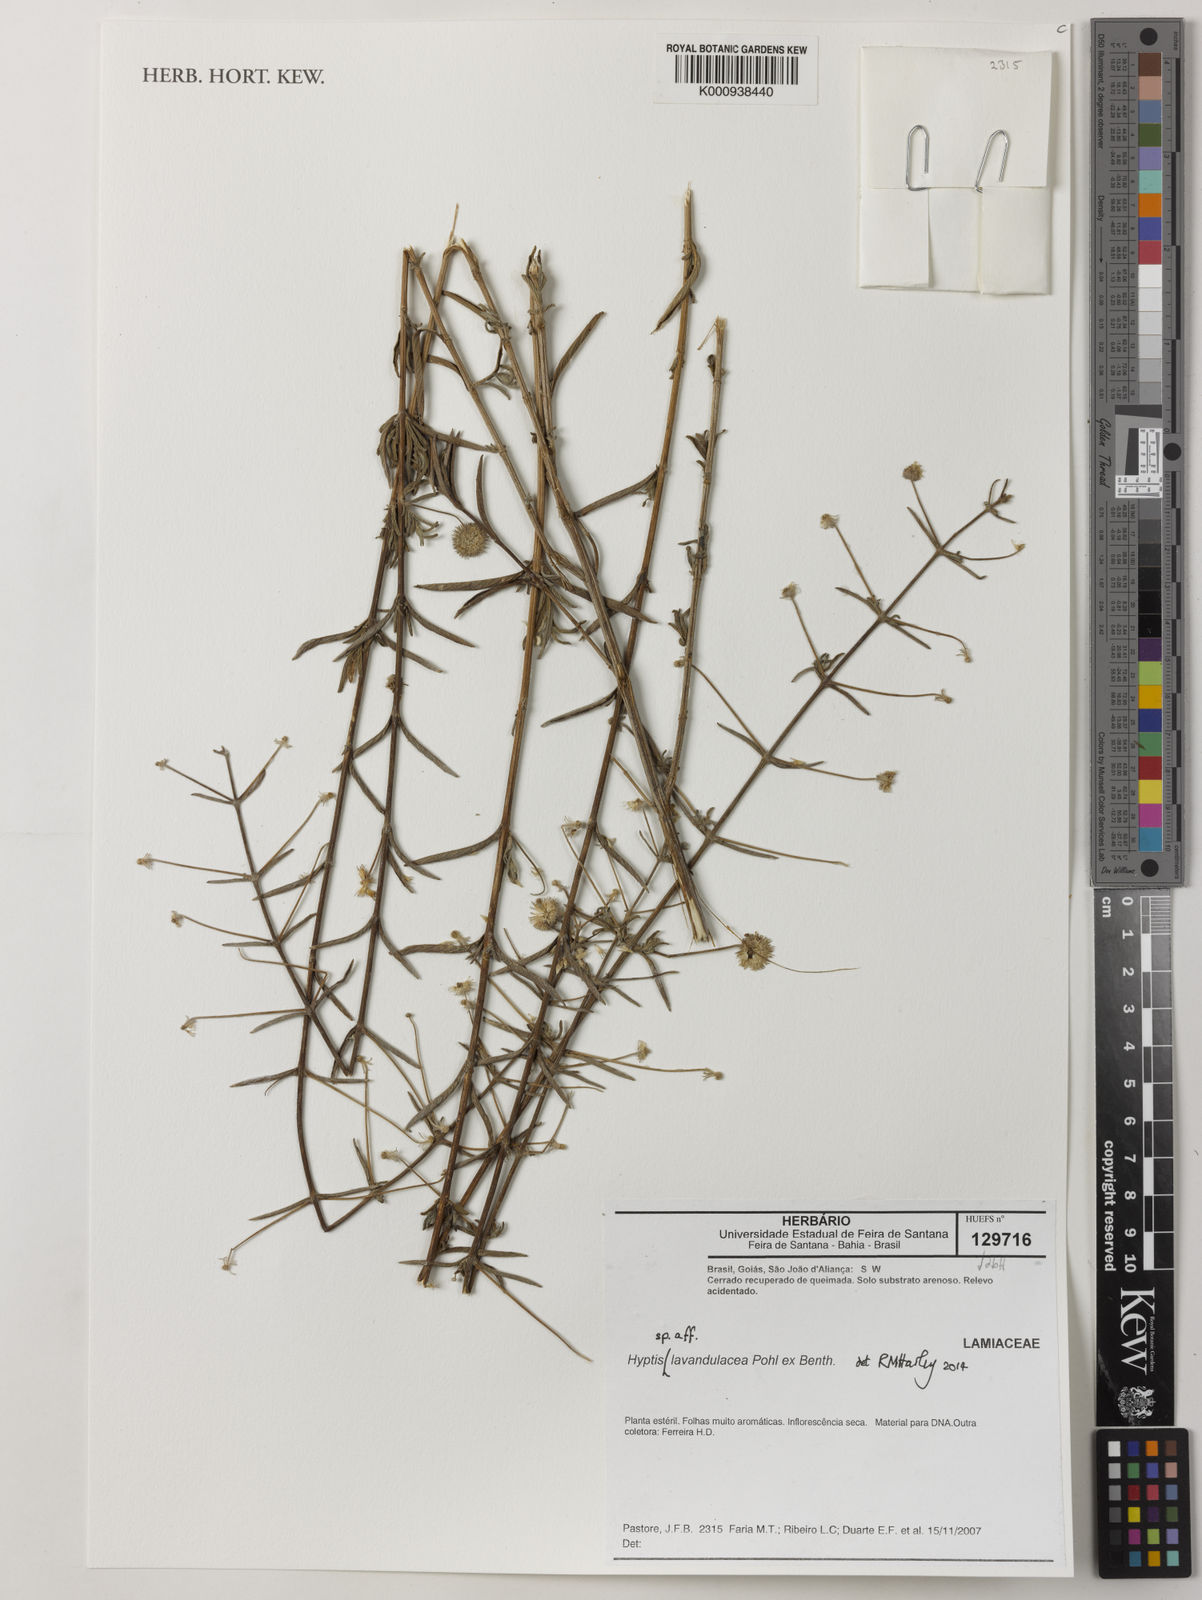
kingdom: Plantae
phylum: Tracheophyta
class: Magnoliopsida
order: Lamiales
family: Lamiaceae
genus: Hyptis
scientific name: Hyptis
